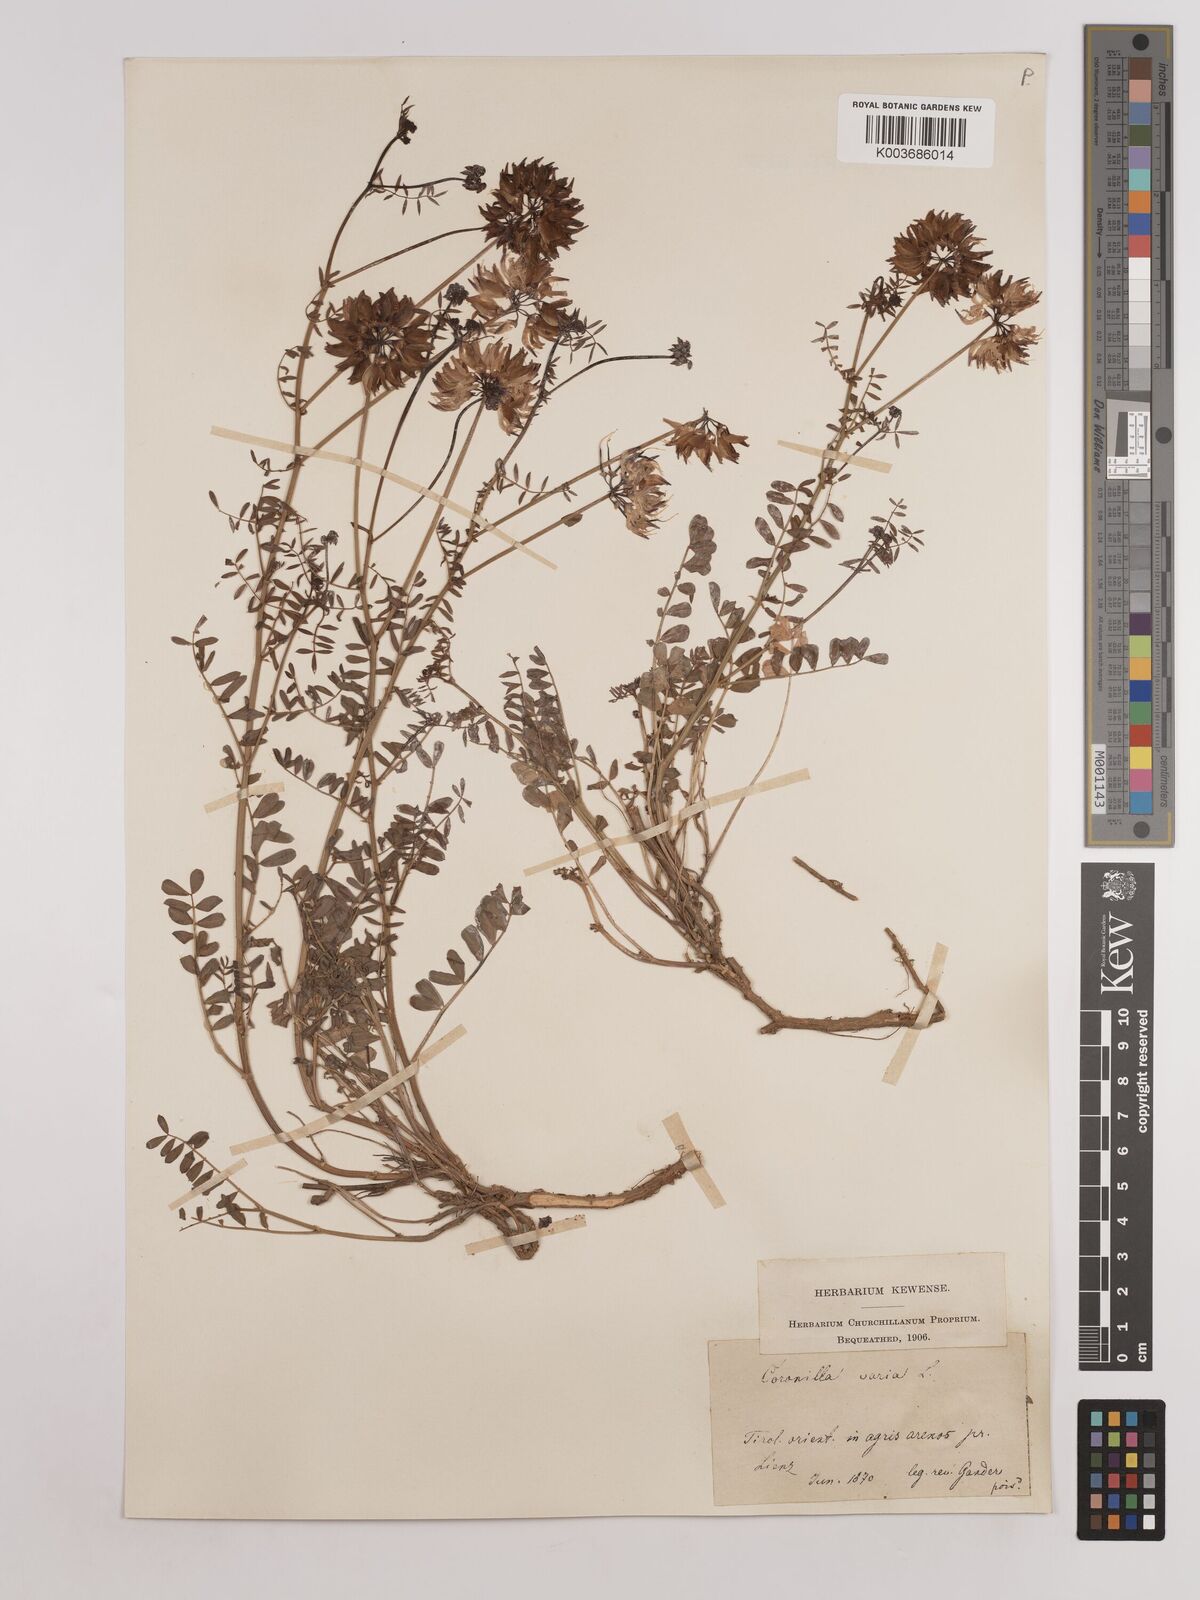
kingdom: Plantae
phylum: Tracheophyta
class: Magnoliopsida
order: Fabales
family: Fabaceae
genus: Coronilla
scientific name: Coronilla varia
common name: Crownvetch
